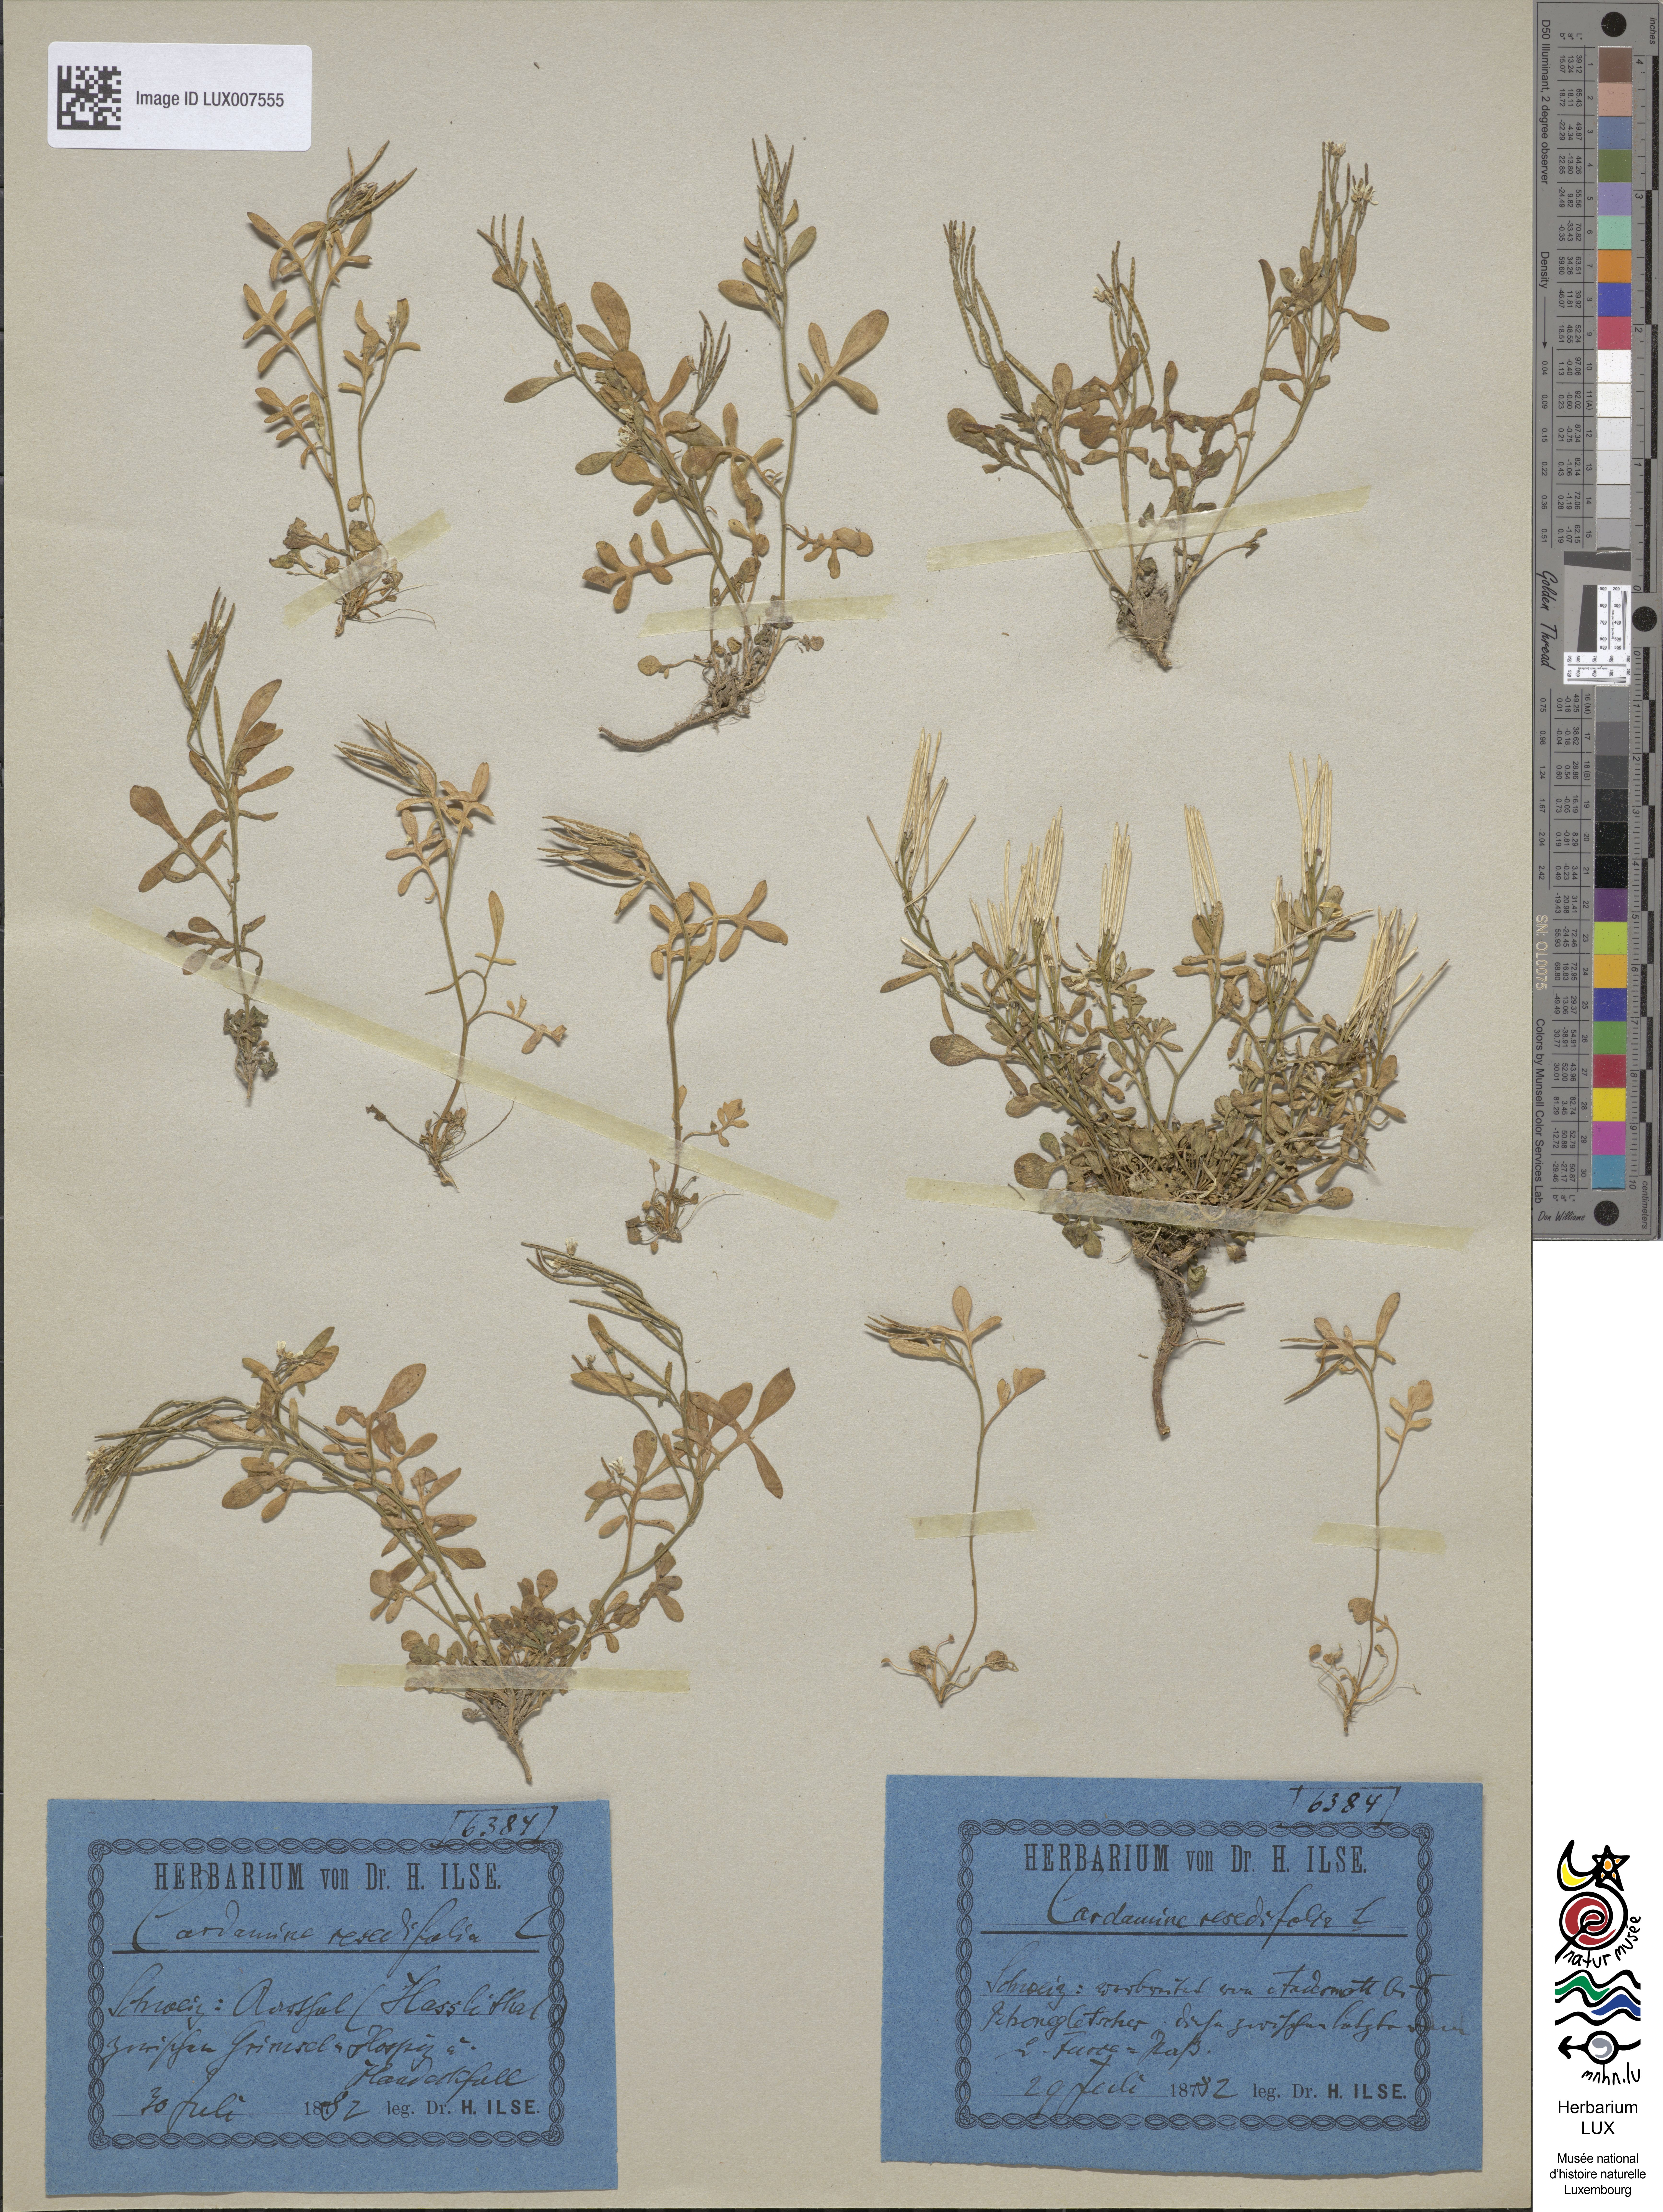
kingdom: Plantae
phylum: Tracheophyta
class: Magnoliopsida
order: Brassicales
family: Brassicaceae
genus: Cardamine
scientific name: Cardamine resedifolia
